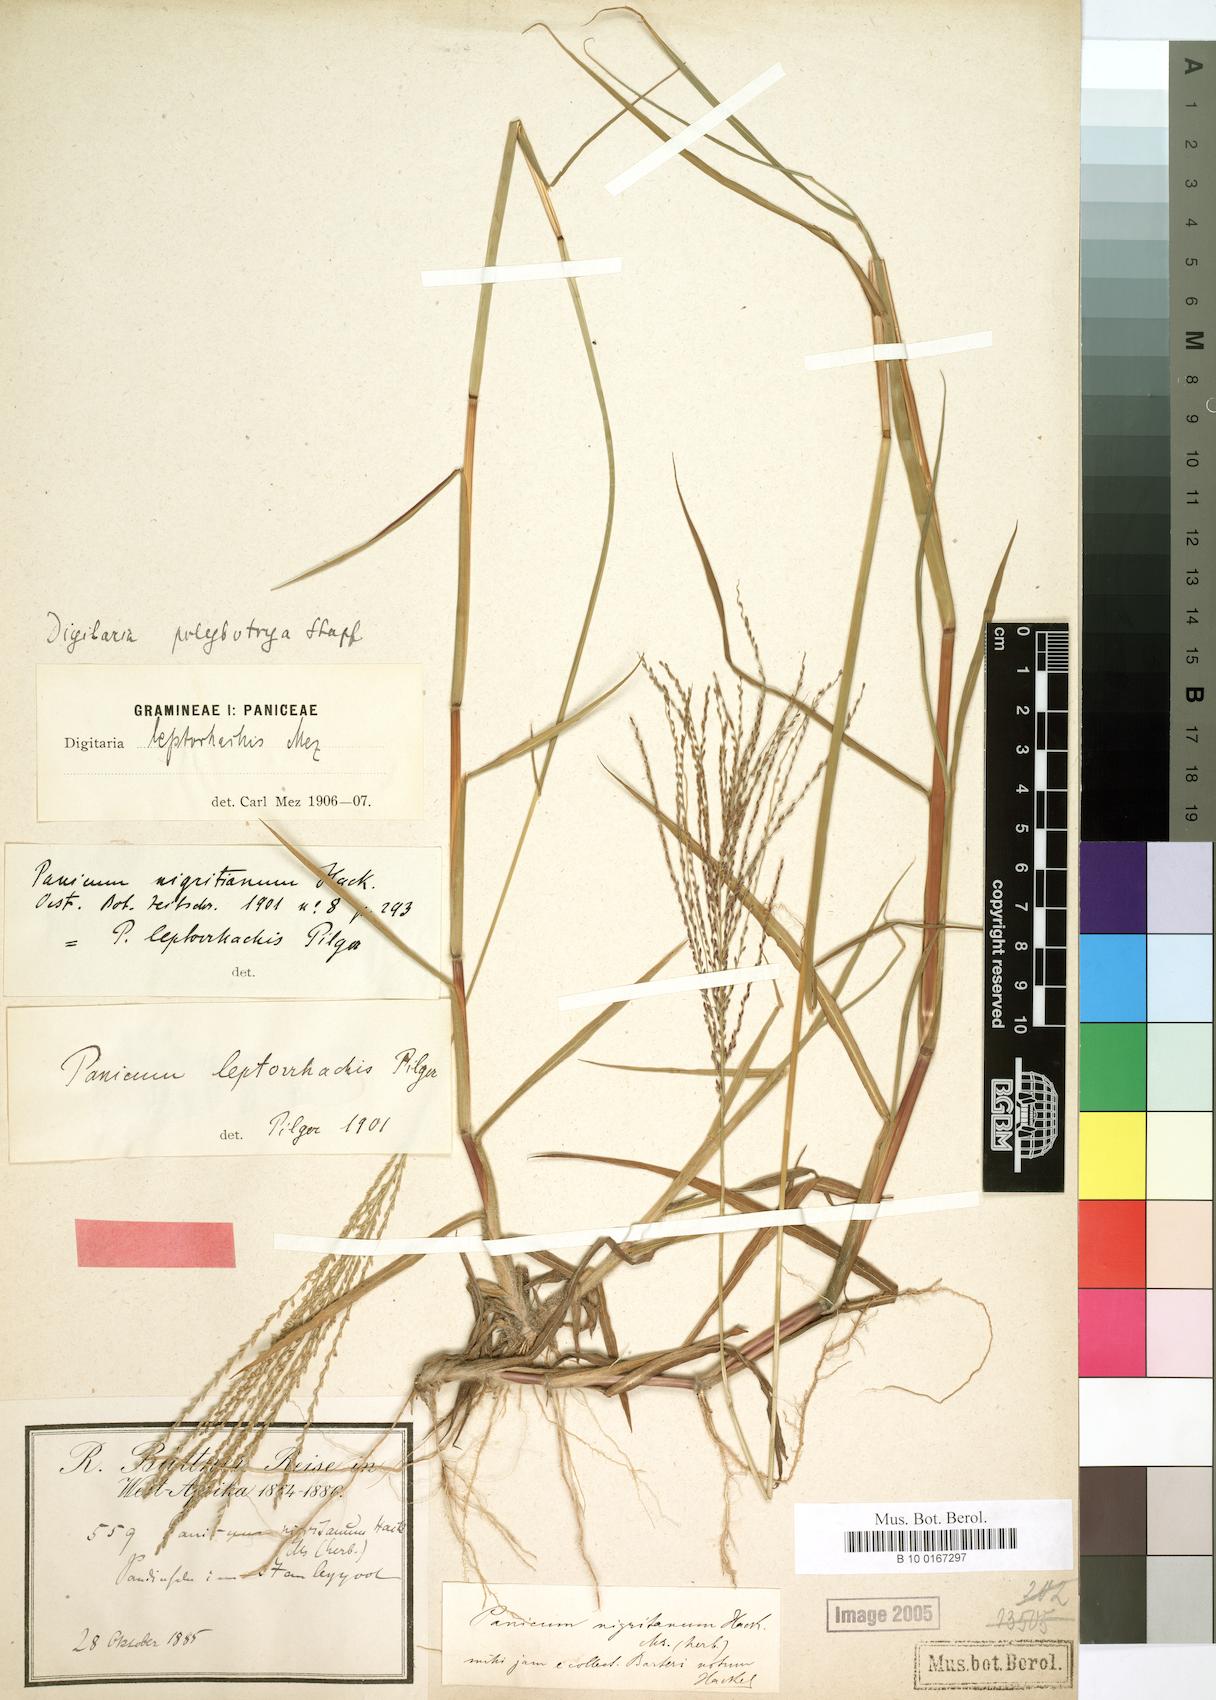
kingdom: Plantae
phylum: Tracheophyta
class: Liliopsida
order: Poales
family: Poaceae
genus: Digitaria
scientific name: Digitaria leptorhachis
